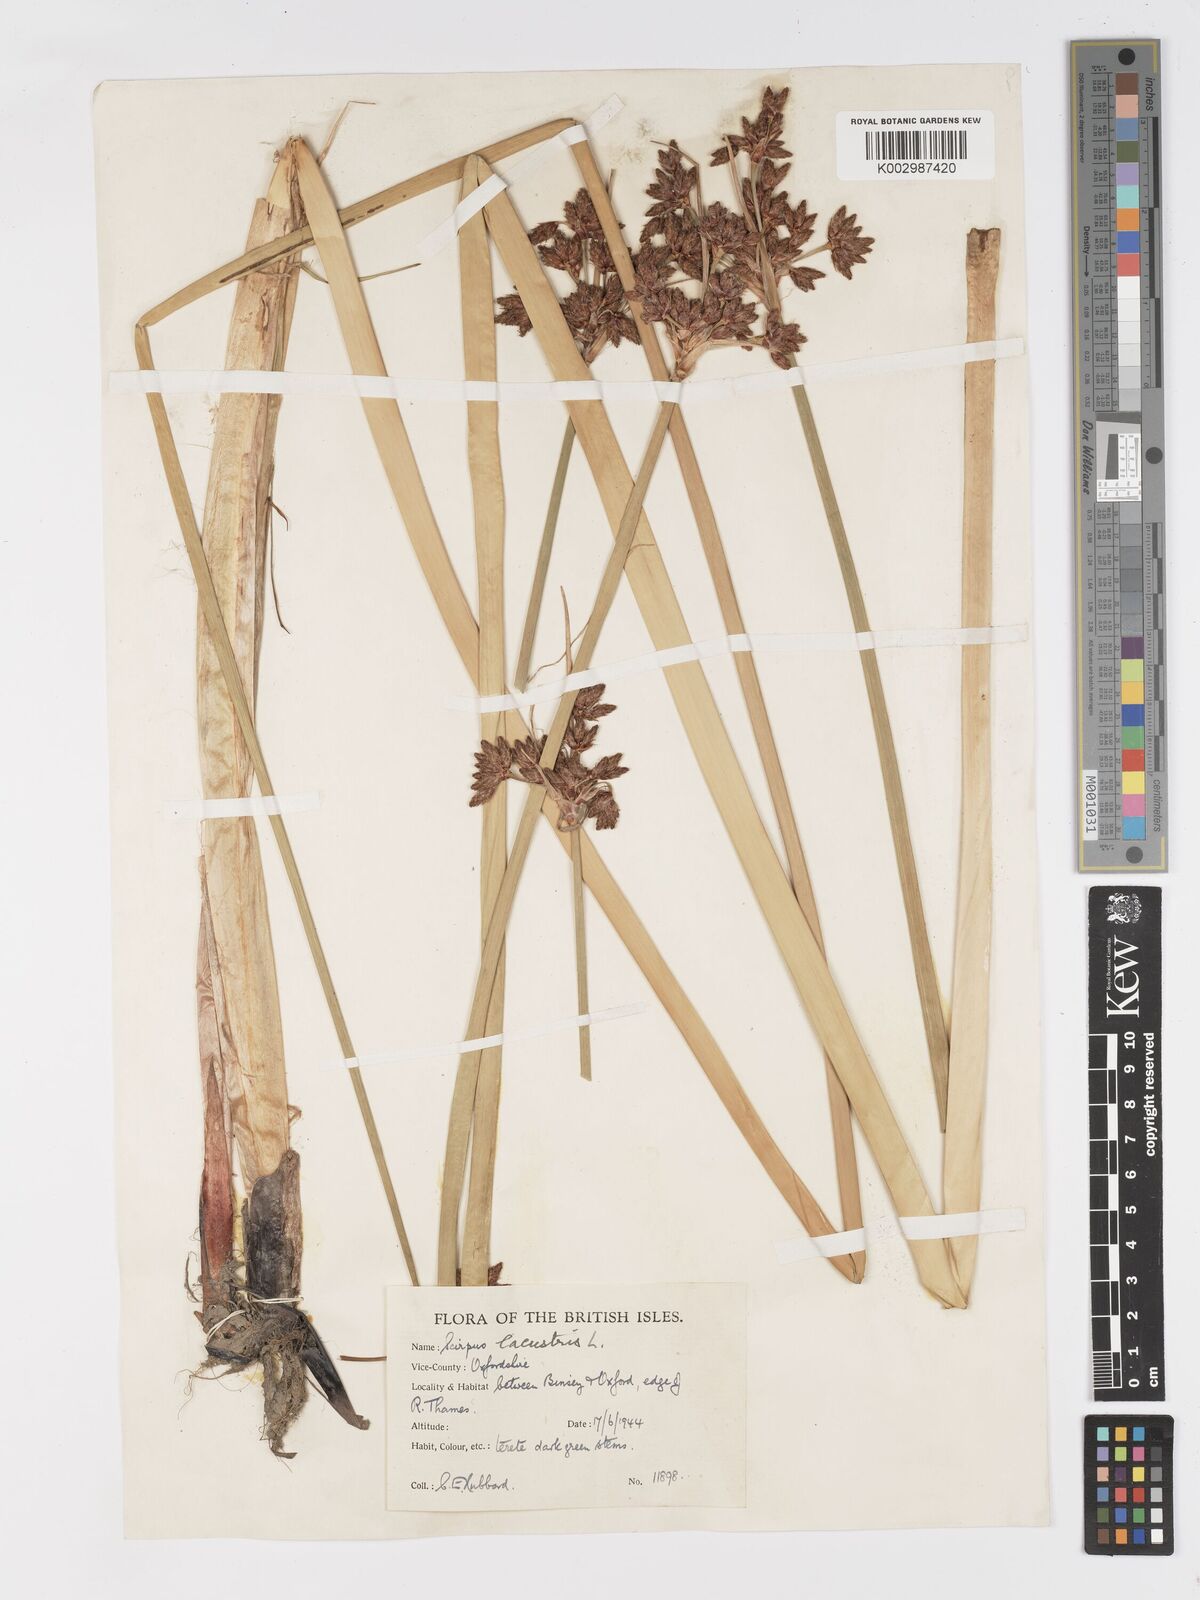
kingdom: Plantae
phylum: Tracheophyta
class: Liliopsida
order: Poales
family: Cyperaceae
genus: Schoenoplectus
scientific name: Schoenoplectus lacustris
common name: Common club-rush
